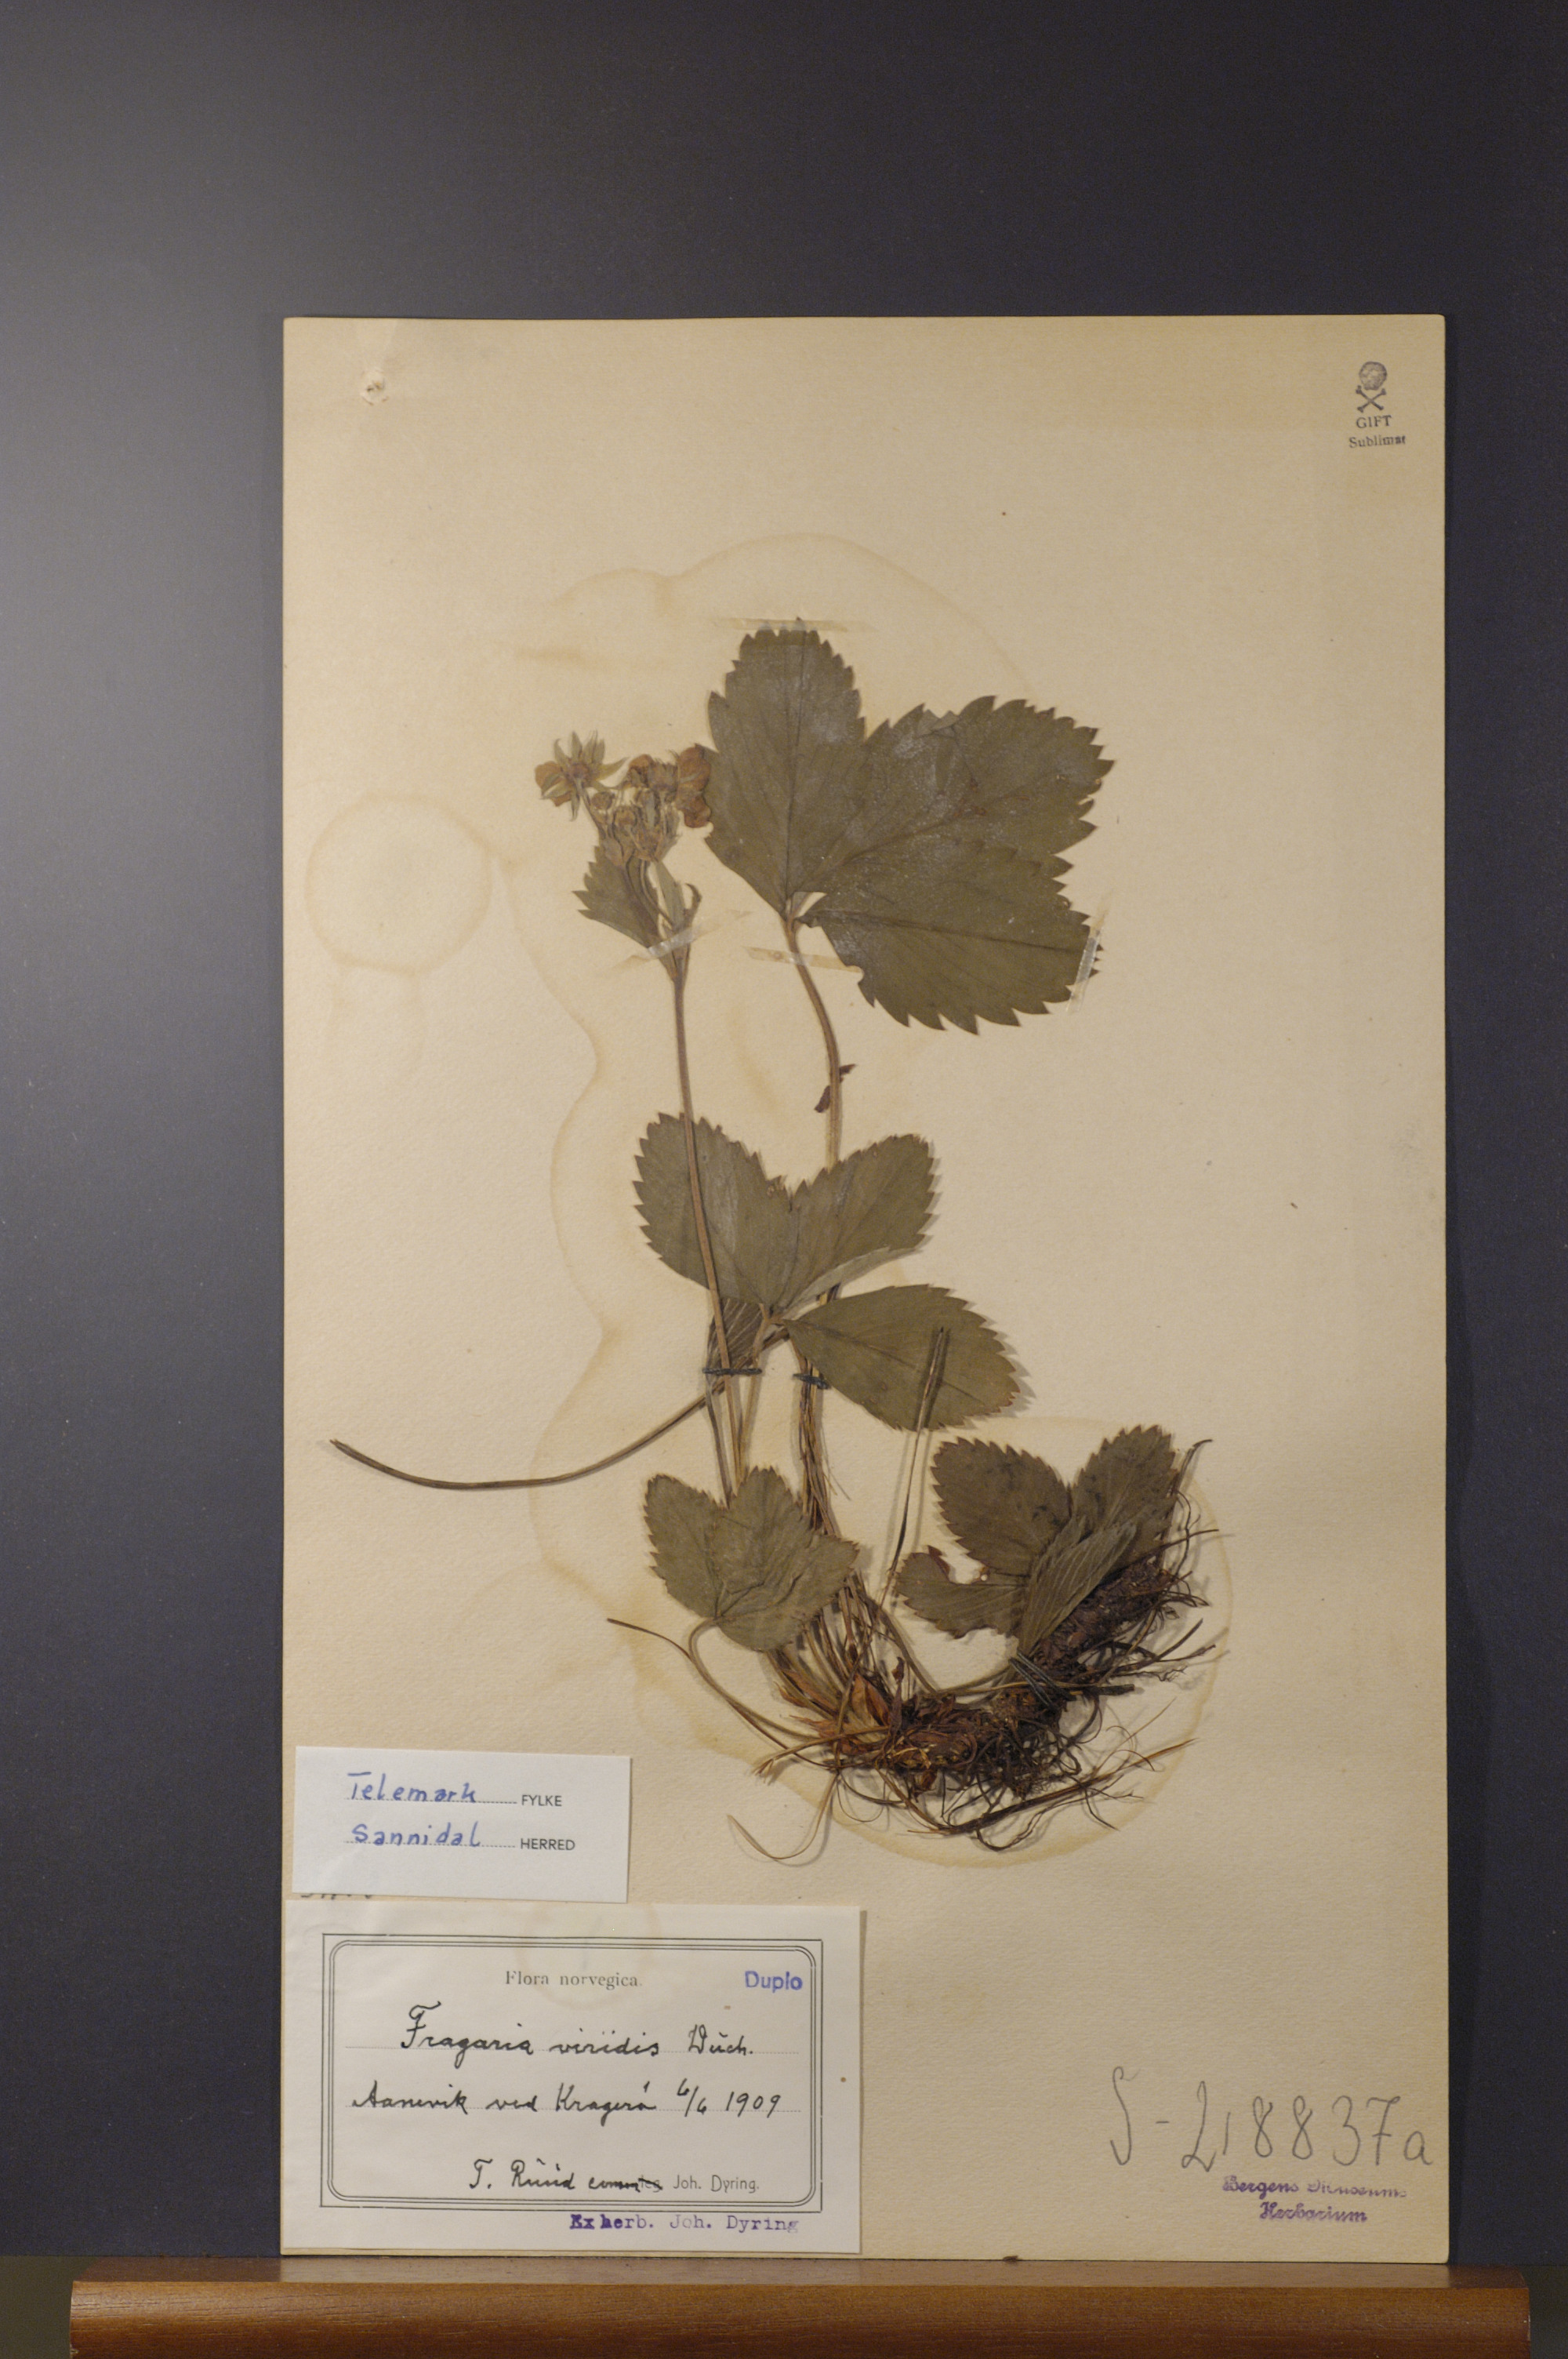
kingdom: Plantae
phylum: Tracheophyta
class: Magnoliopsida
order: Rosales
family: Rosaceae
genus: Fragaria
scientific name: Fragaria viridis
